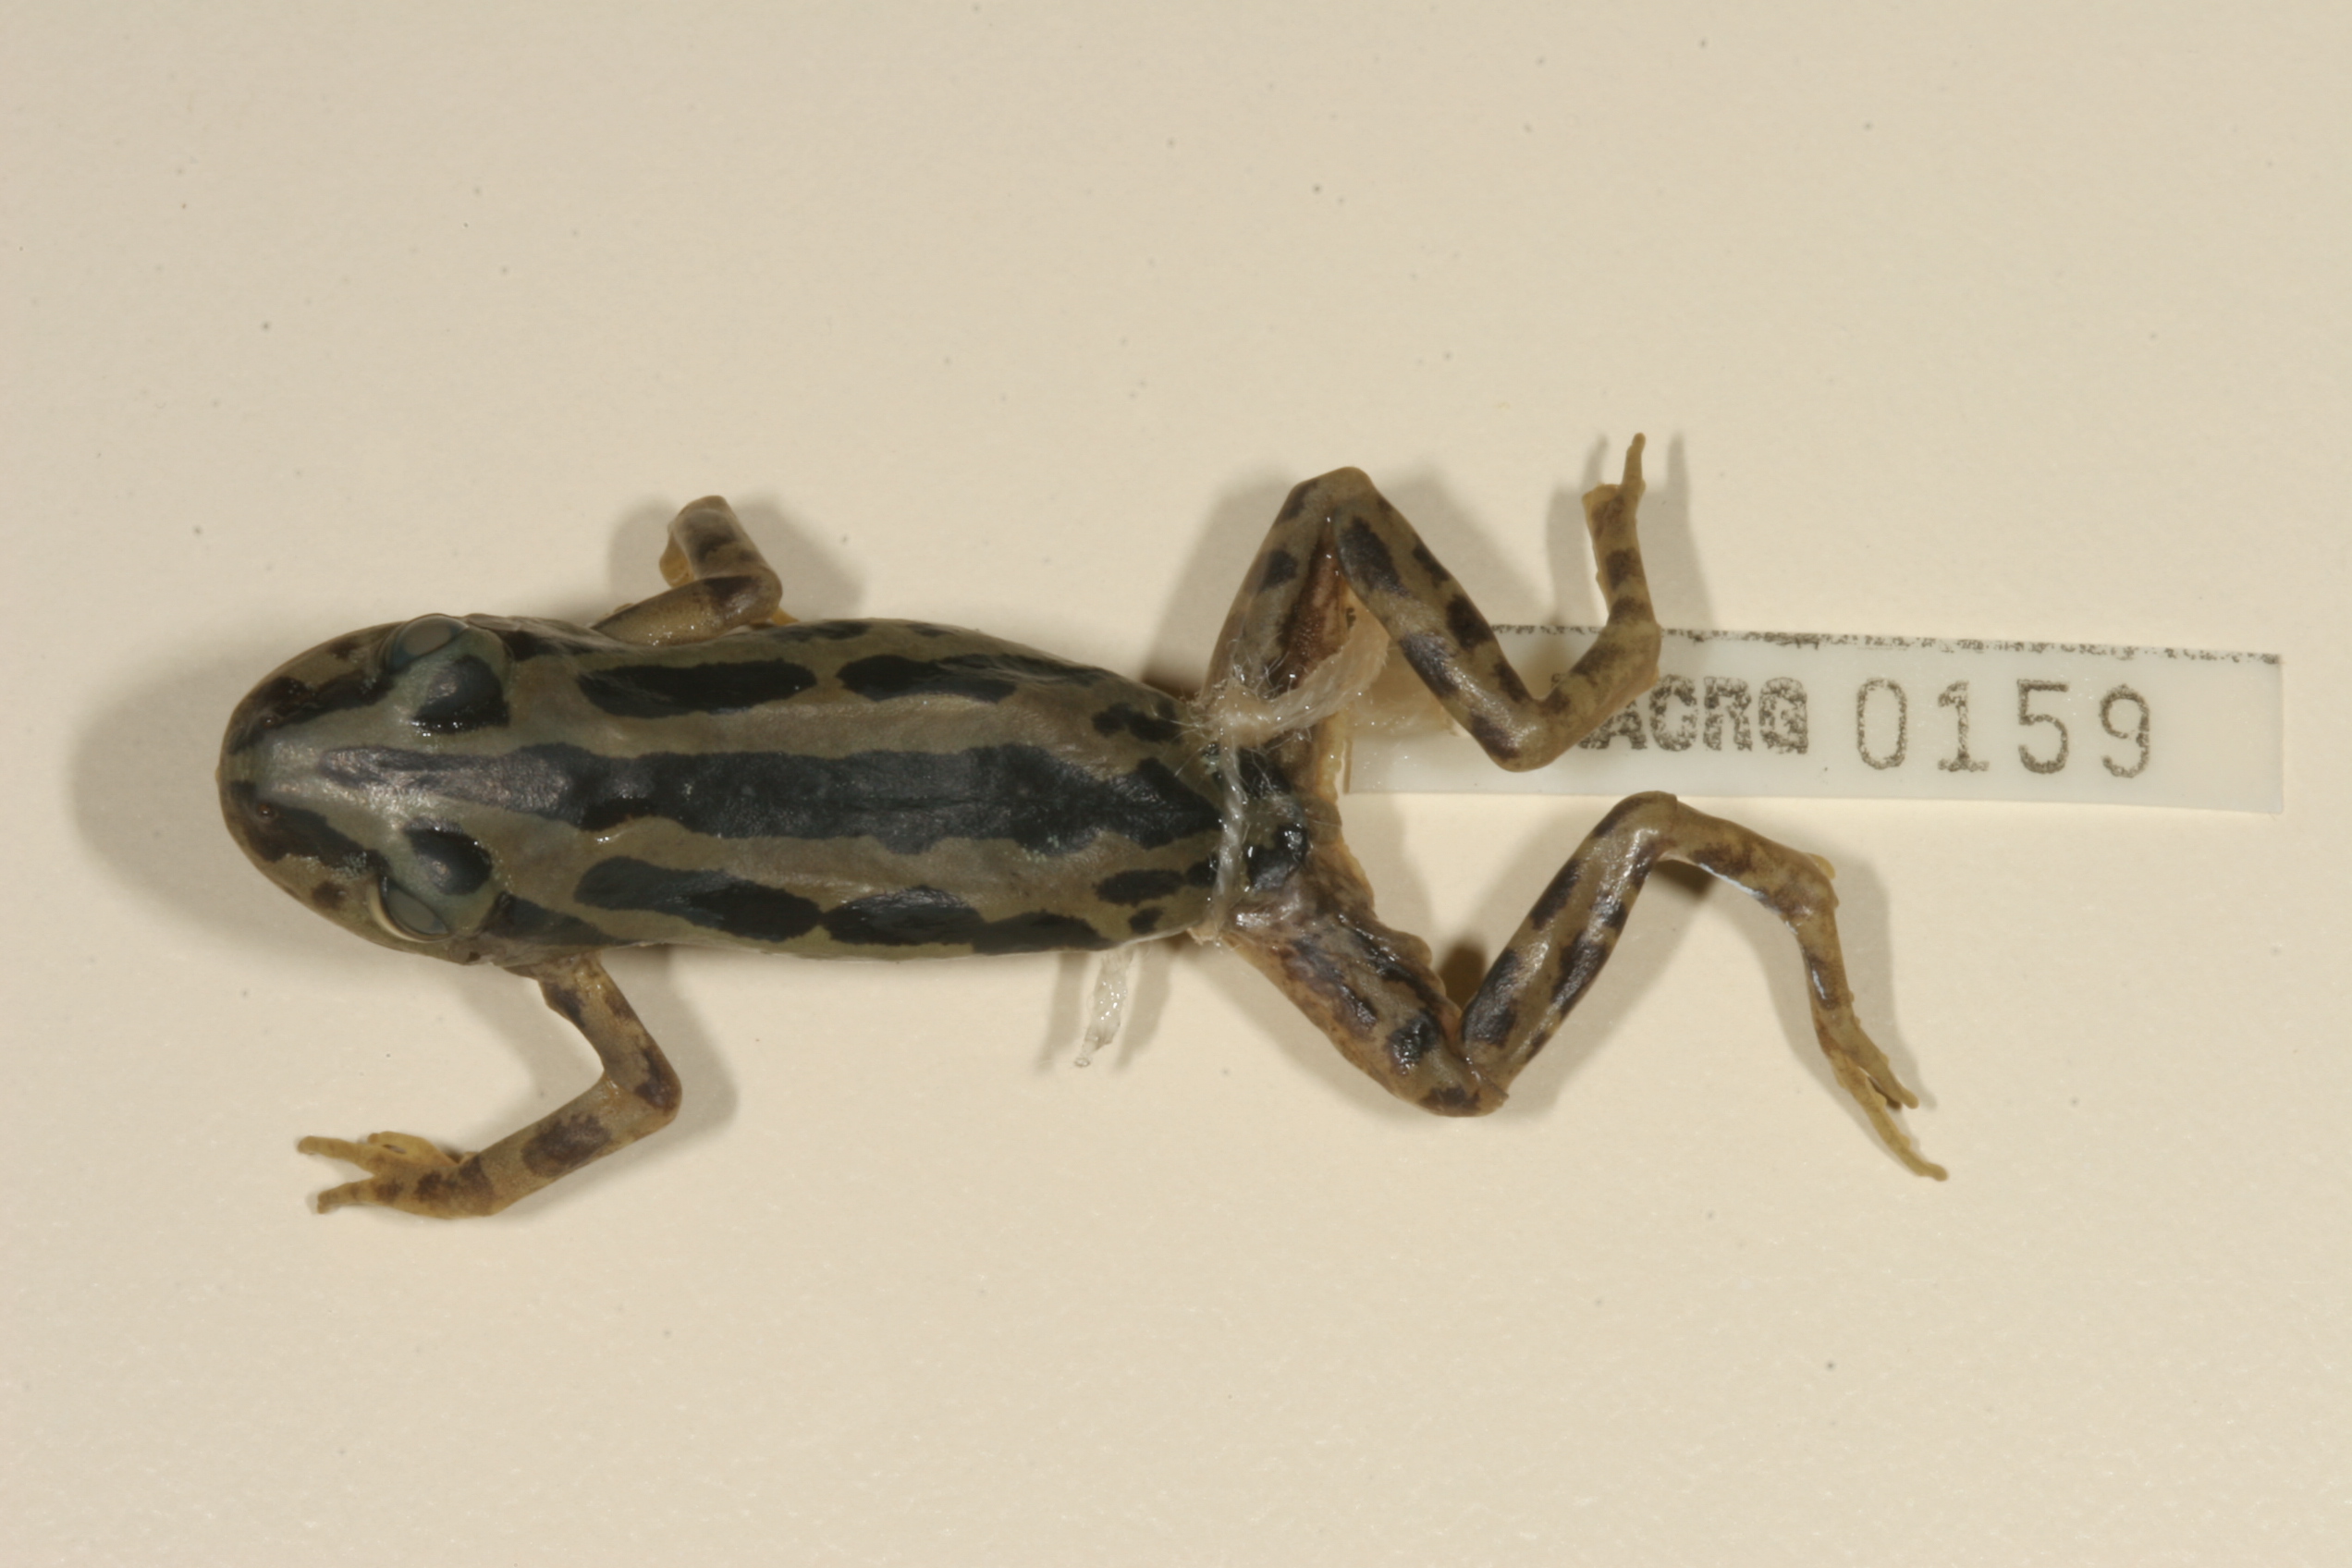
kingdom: Animalia
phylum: Chordata
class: Amphibia
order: Anura
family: Hyperoliidae
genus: Kassina
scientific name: Kassina senegalensis
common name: Senegal land frog
